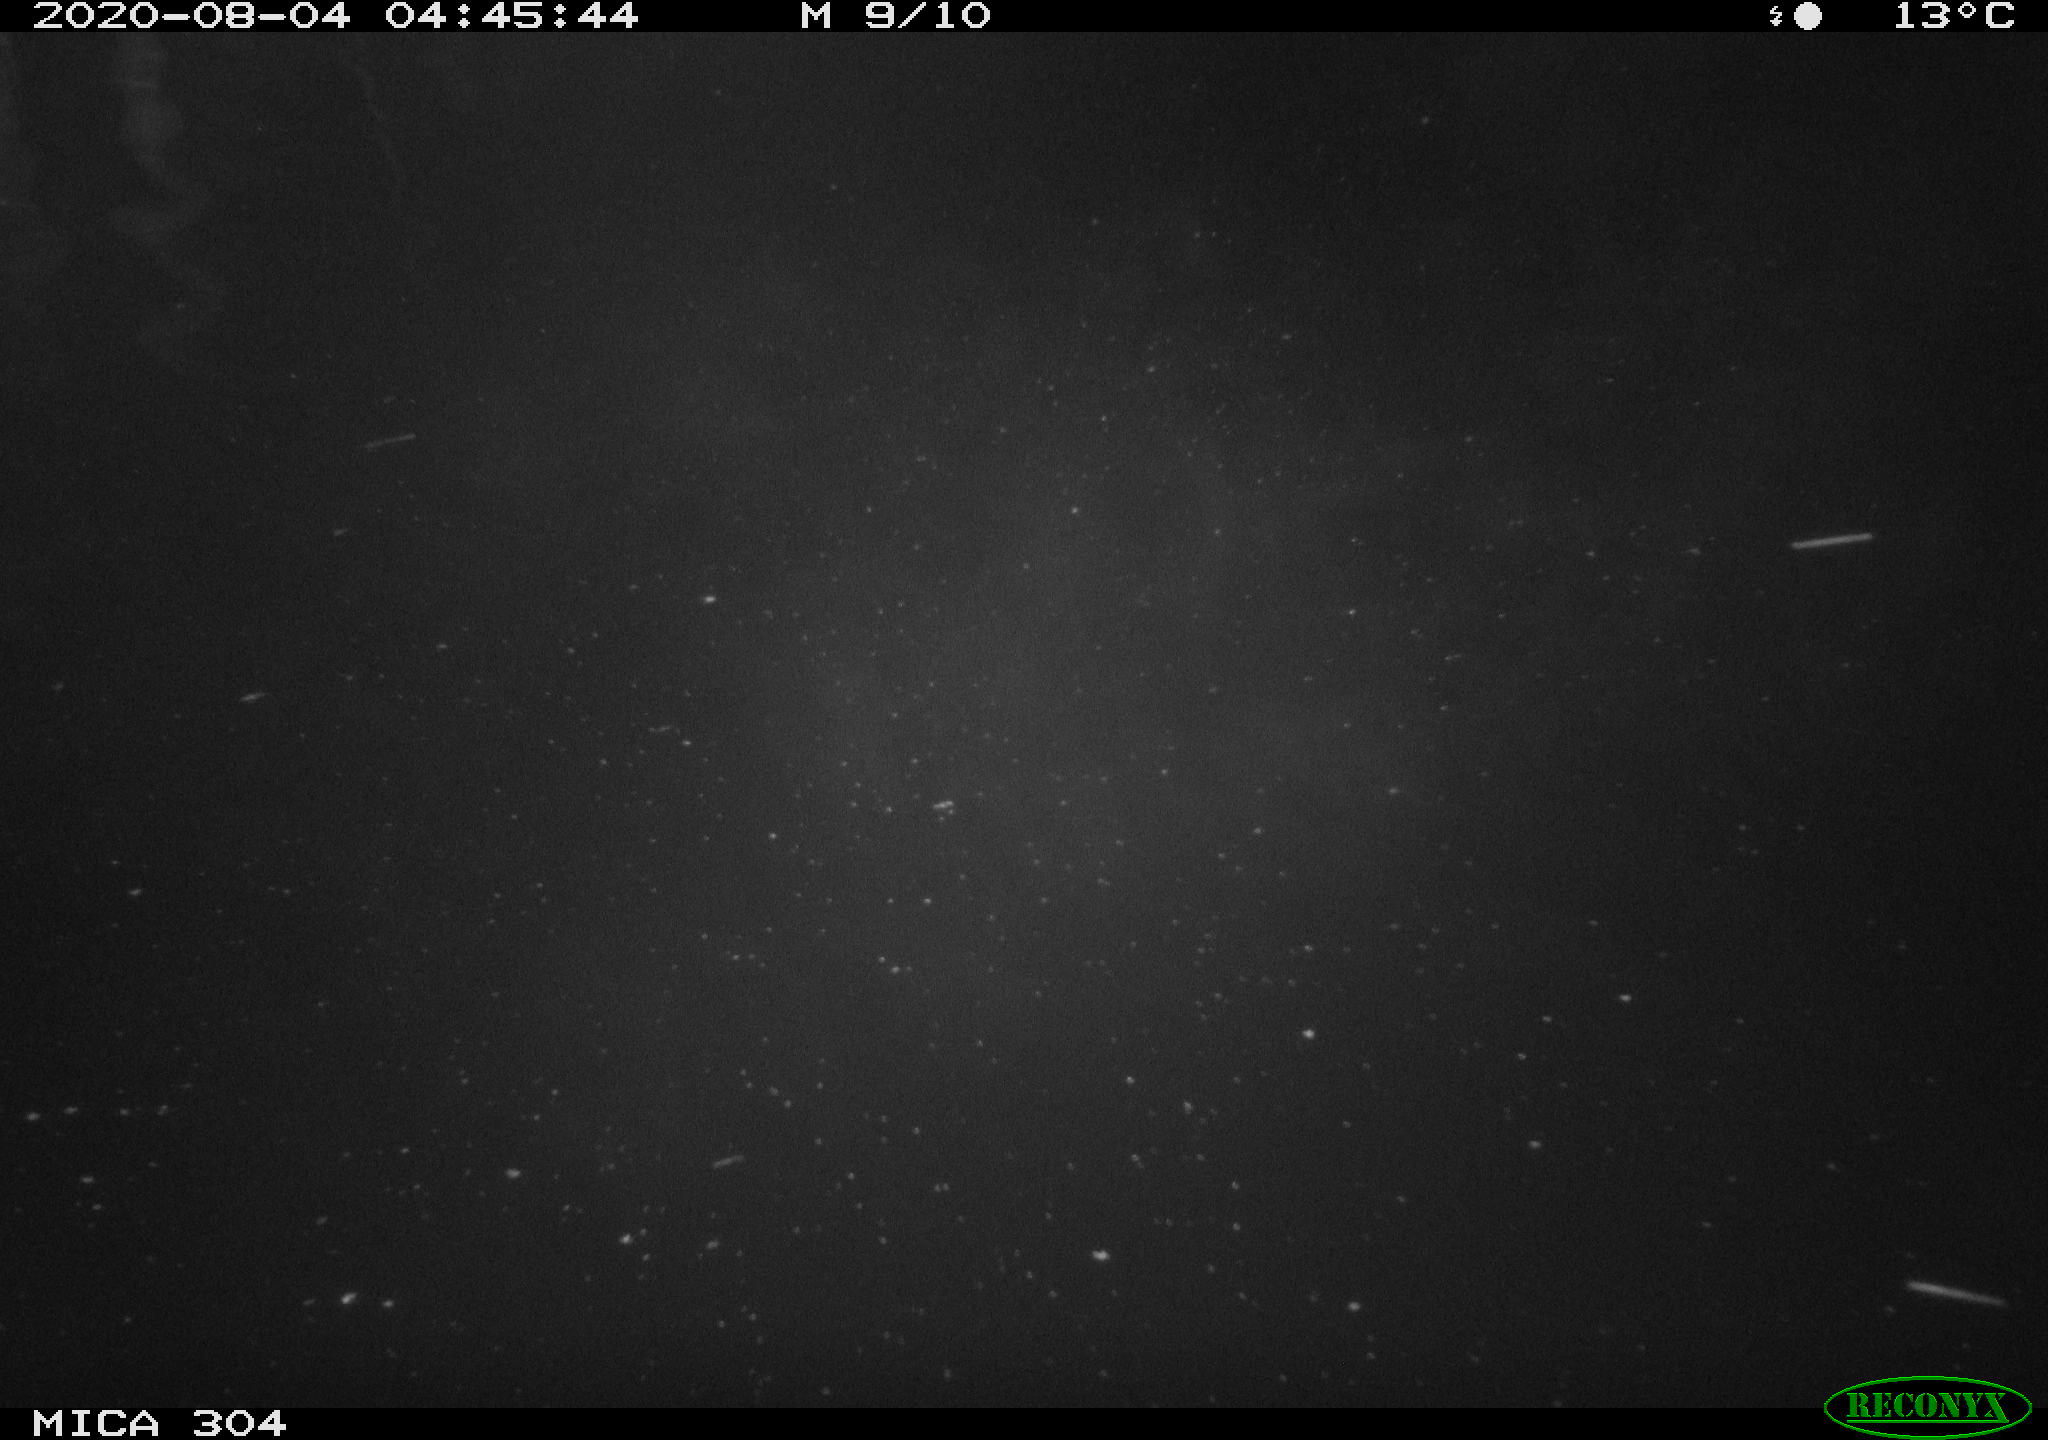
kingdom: Animalia
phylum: Chordata
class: Mammalia
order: Rodentia
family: Cricetidae
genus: Ondatra
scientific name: Ondatra zibethicus
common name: Muskrat
